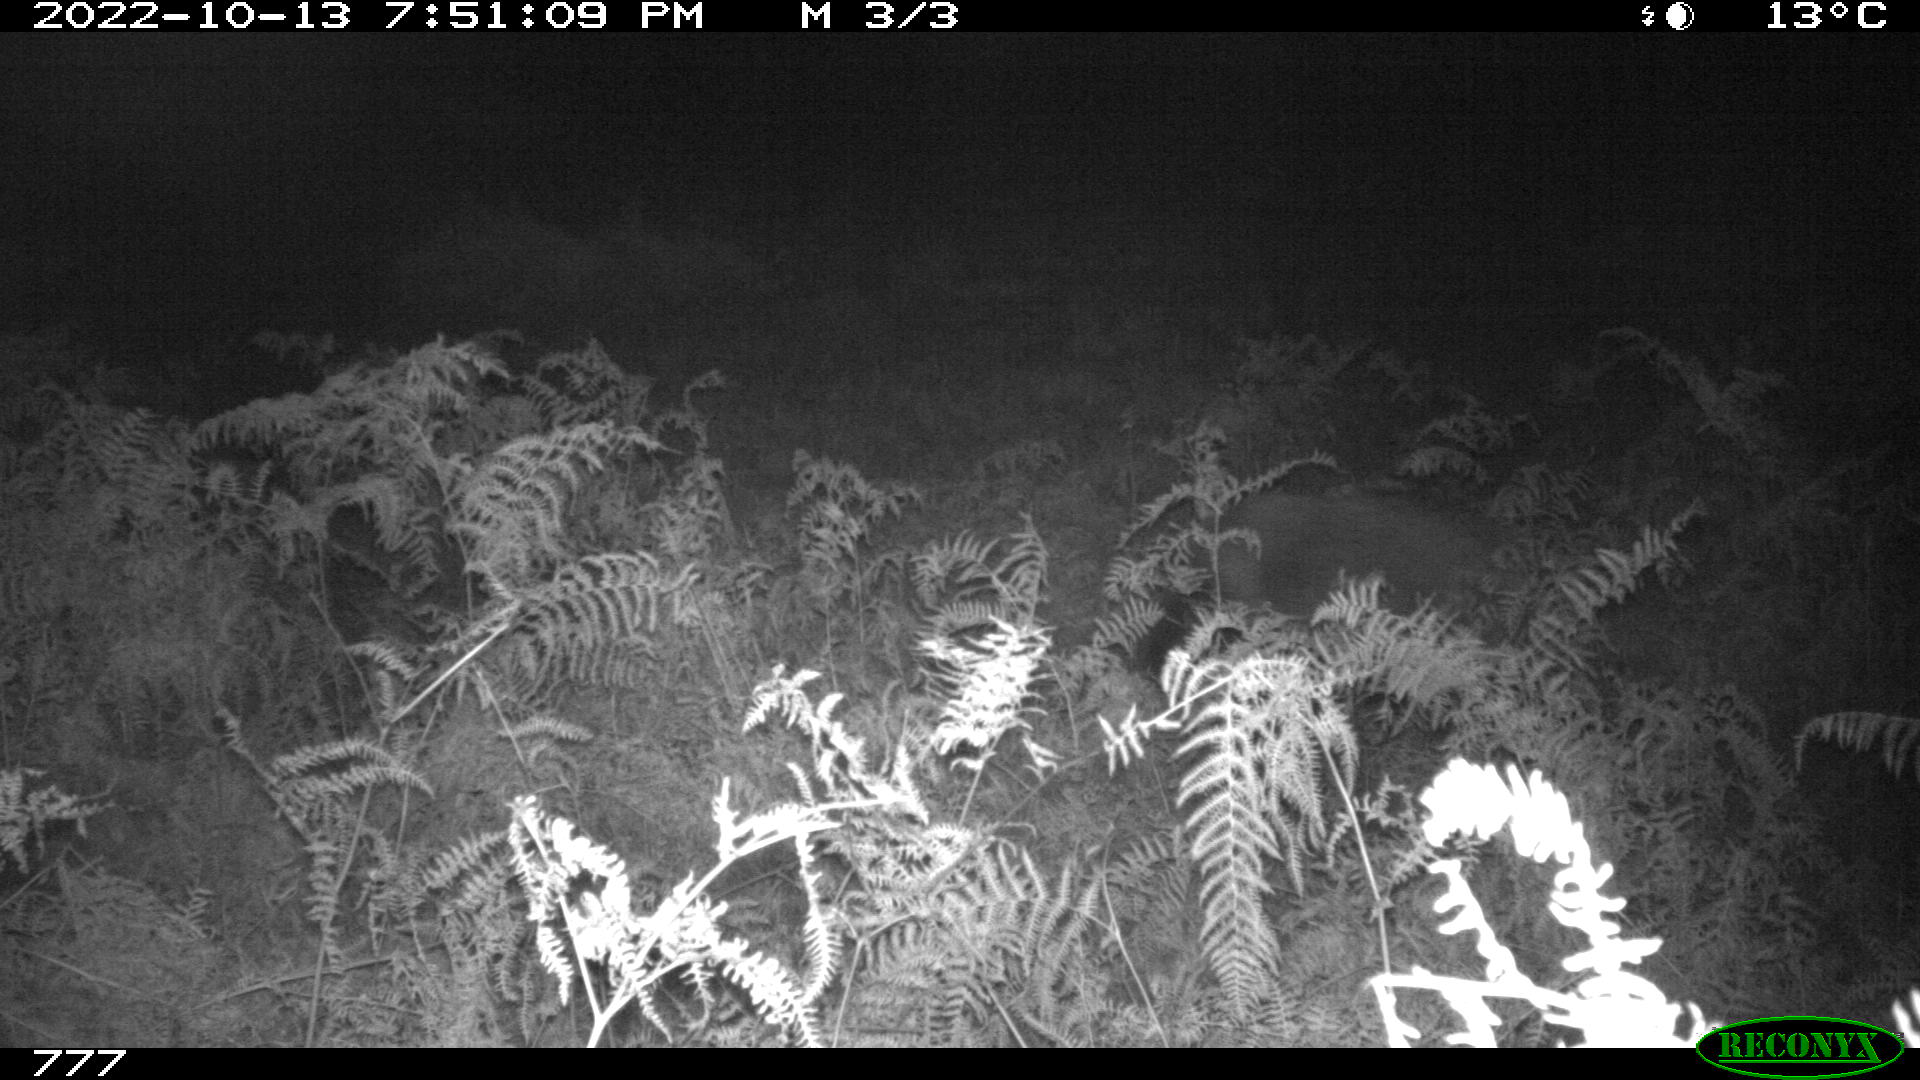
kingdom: Animalia
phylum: Chordata
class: Mammalia
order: Artiodactyla
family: Suidae
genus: Sus
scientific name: Sus scrofa
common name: Wild boar
